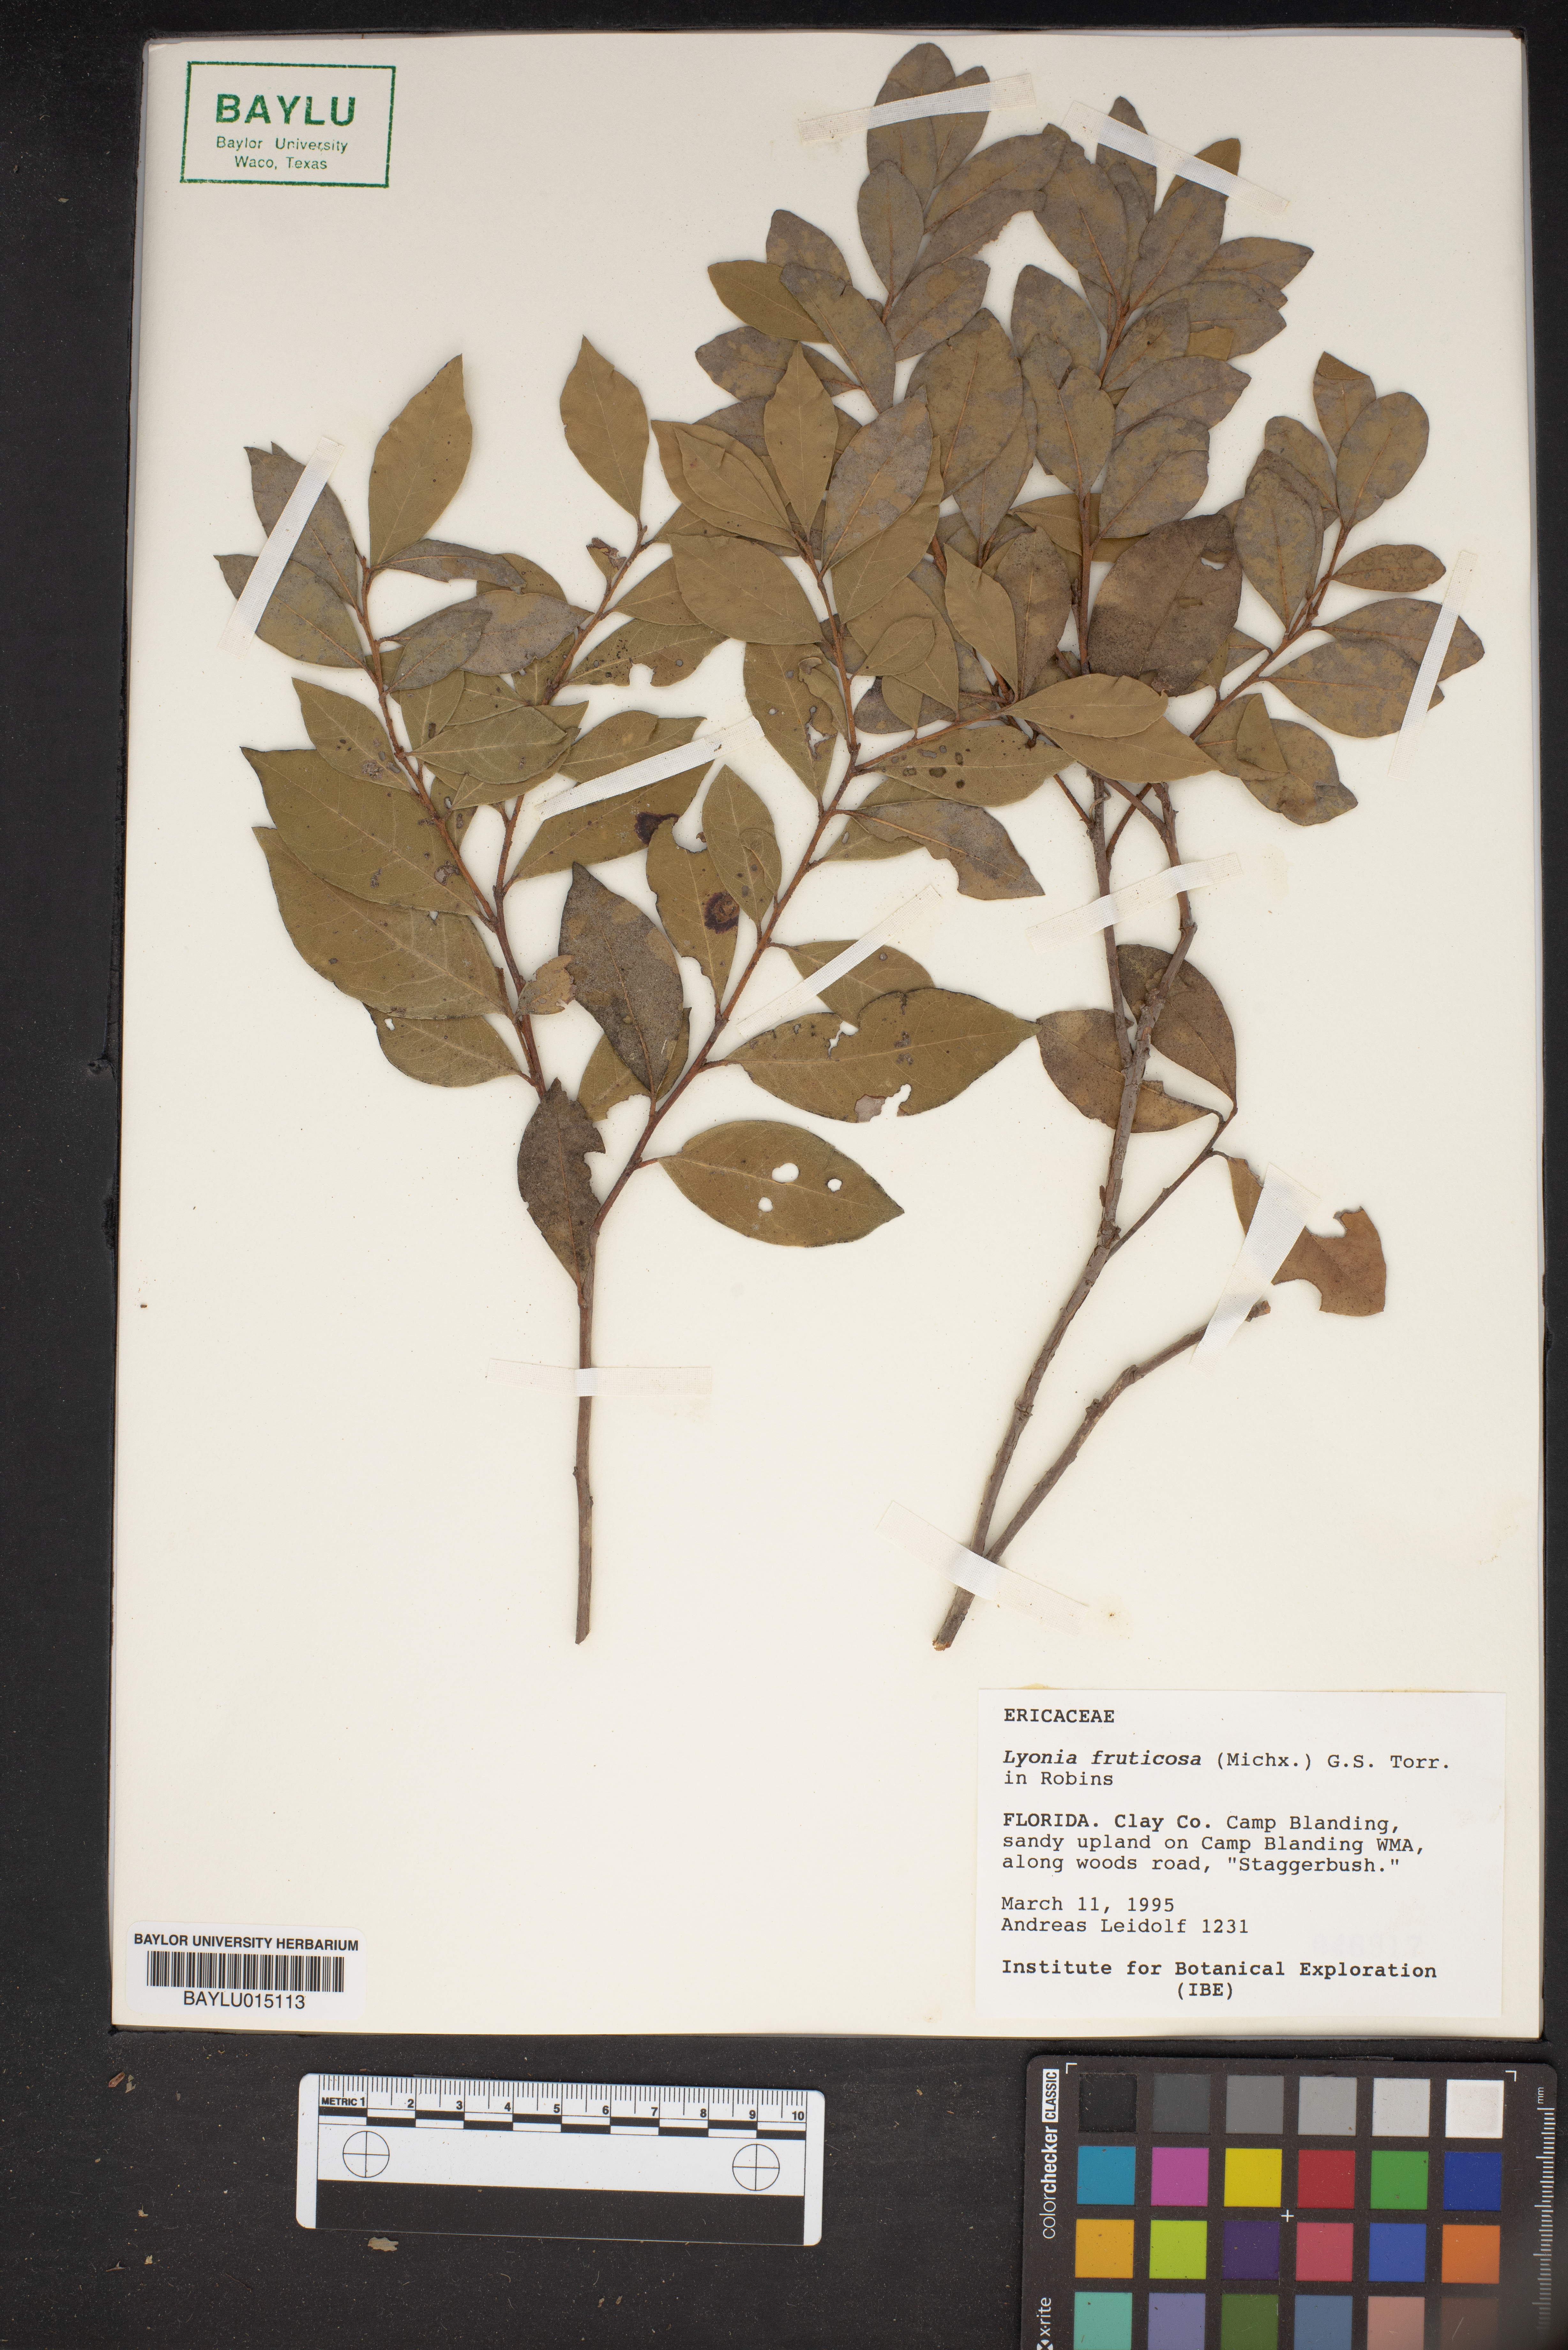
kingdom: Plantae
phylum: Tracheophyta
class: Magnoliopsida
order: Ericales
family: Ericaceae
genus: Lyonia
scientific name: Lyonia fruticosa
